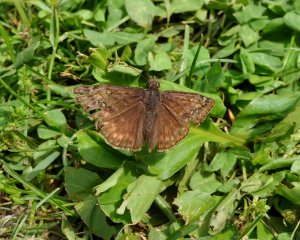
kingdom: Animalia
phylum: Arthropoda
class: Insecta
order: Lepidoptera
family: Hesperiidae
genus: Gesta
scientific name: Gesta
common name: Horace's Duskywing
